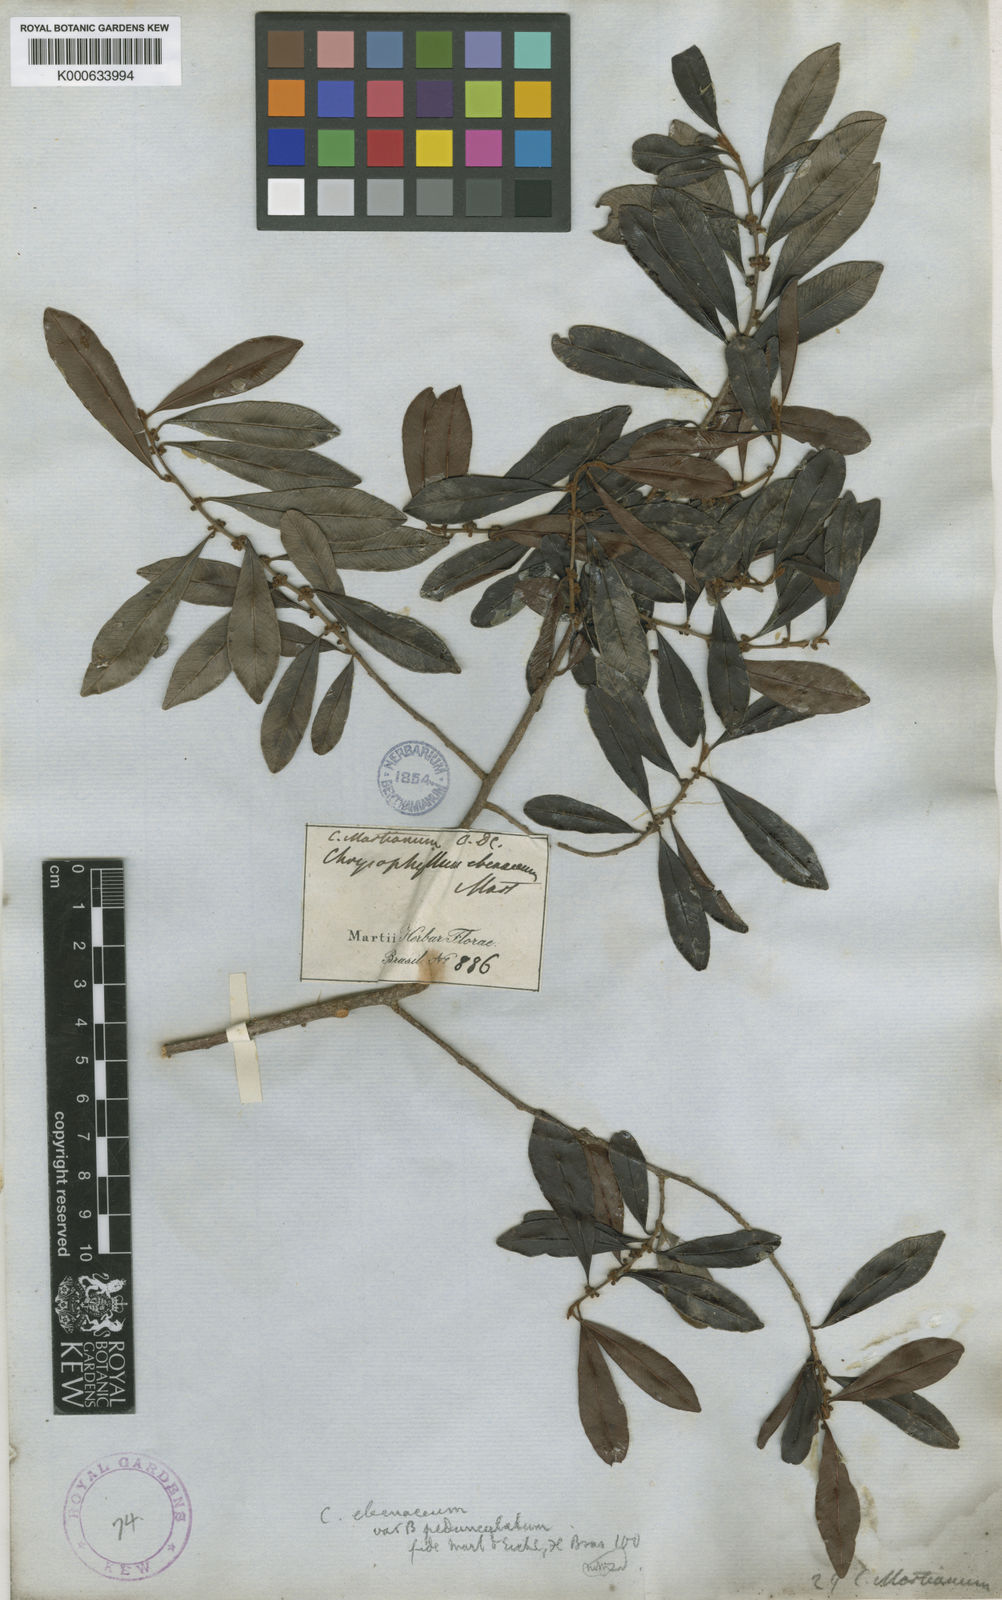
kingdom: Plantae
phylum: Tracheophyta
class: Magnoliopsida
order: Ericales
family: Sapotaceae
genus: Chrysophyllum
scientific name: Chrysophyllum marginatum
